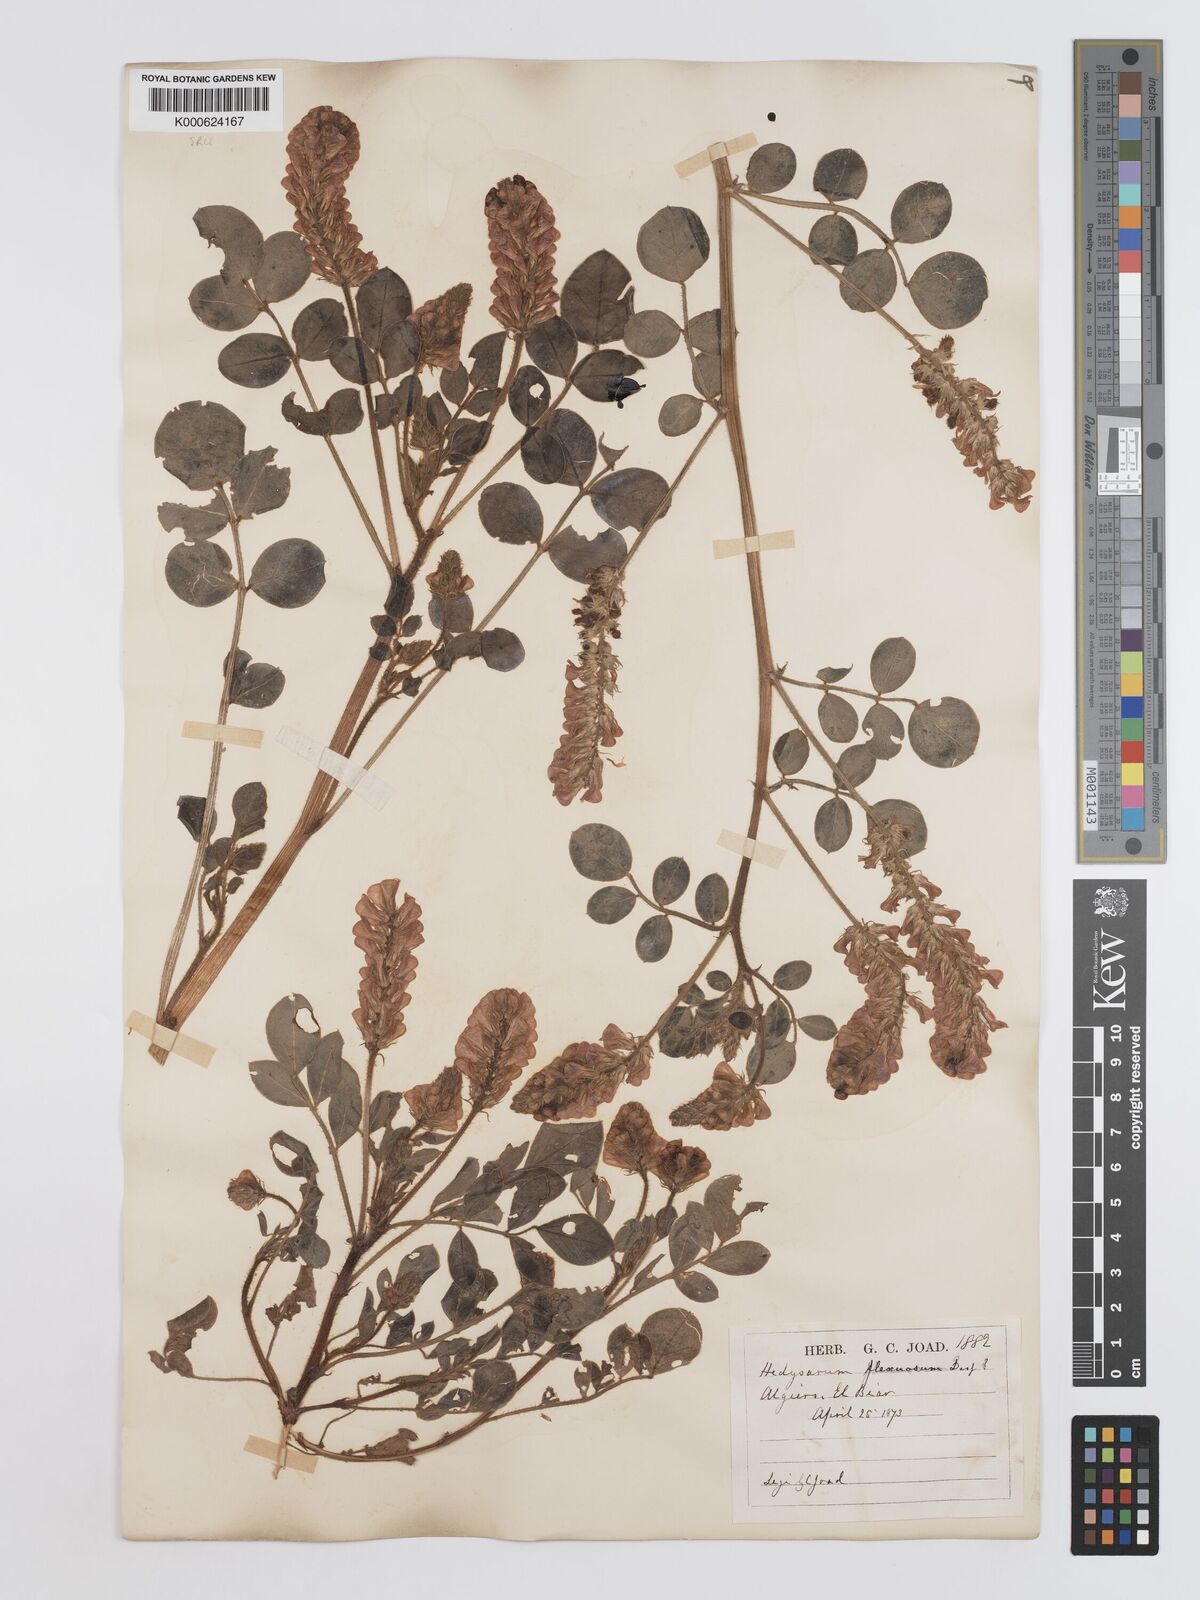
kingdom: Plantae
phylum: Tracheophyta
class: Magnoliopsida
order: Fabales
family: Fabaceae
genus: Sulla
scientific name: Sulla flexuosa
